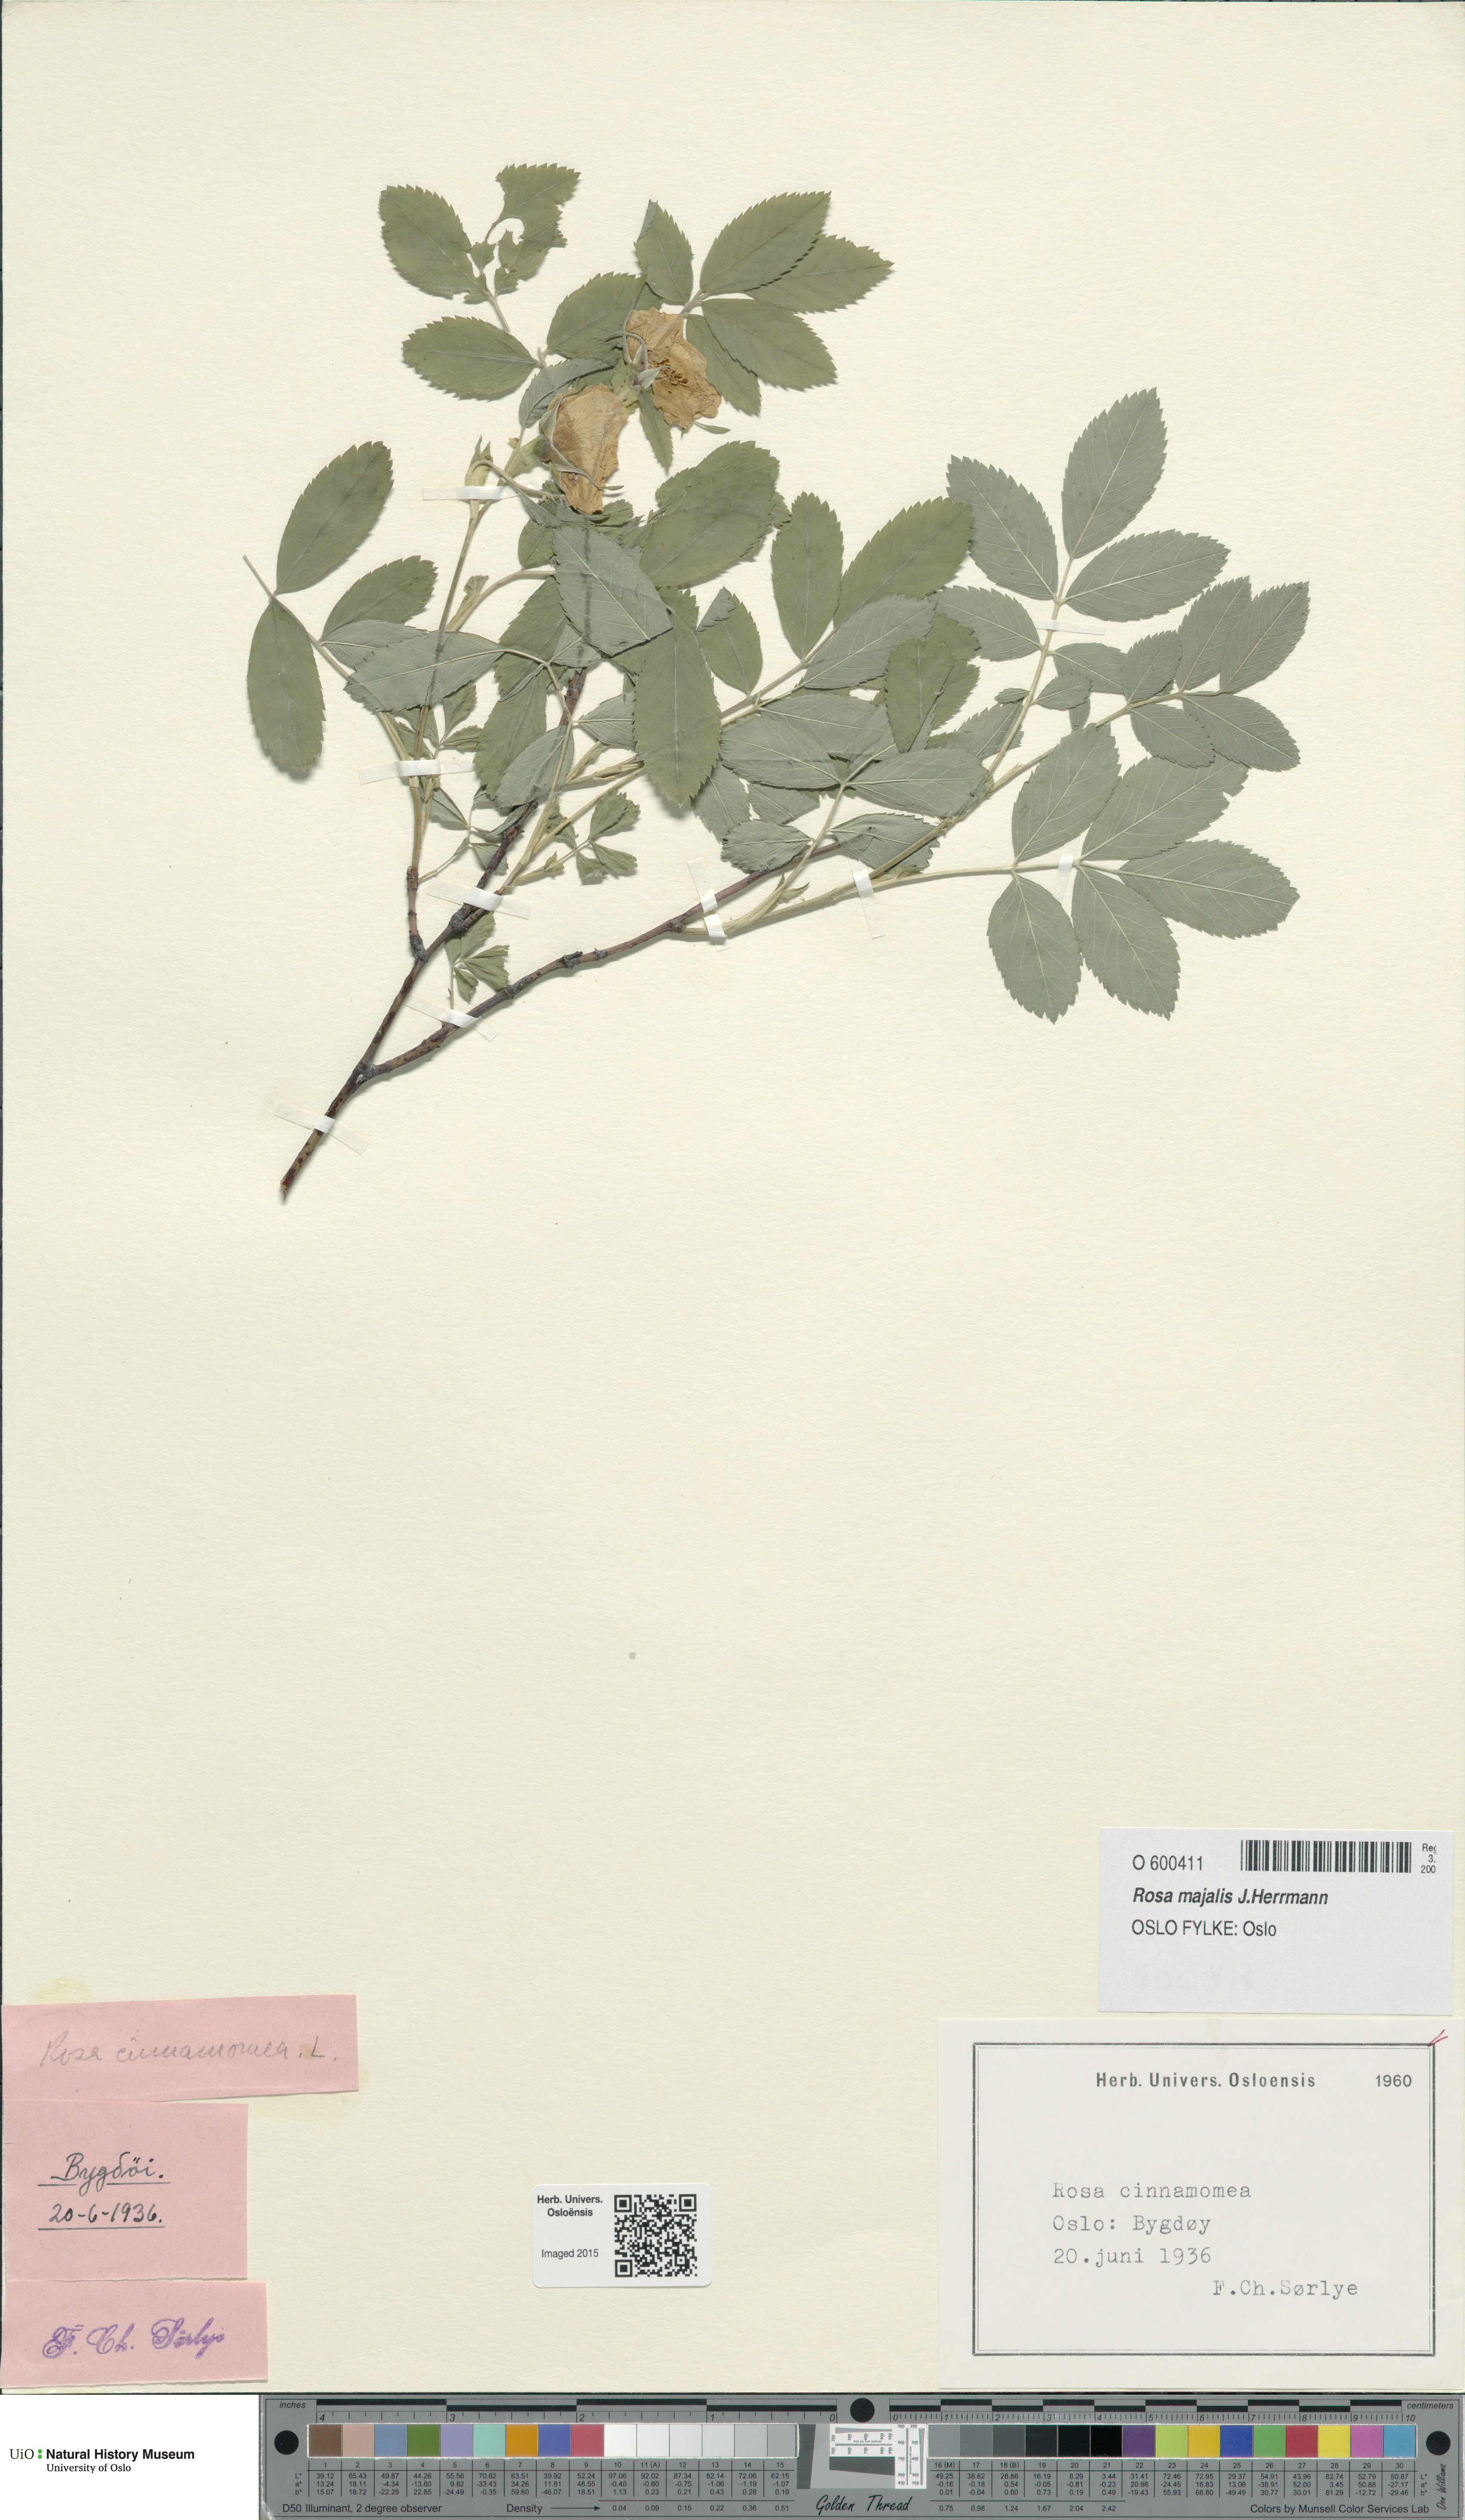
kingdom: Plantae
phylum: Tracheophyta
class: Magnoliopsida
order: Rosales
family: Rosaceae
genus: Rosa
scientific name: Rosa pendulina
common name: Alpine rose
